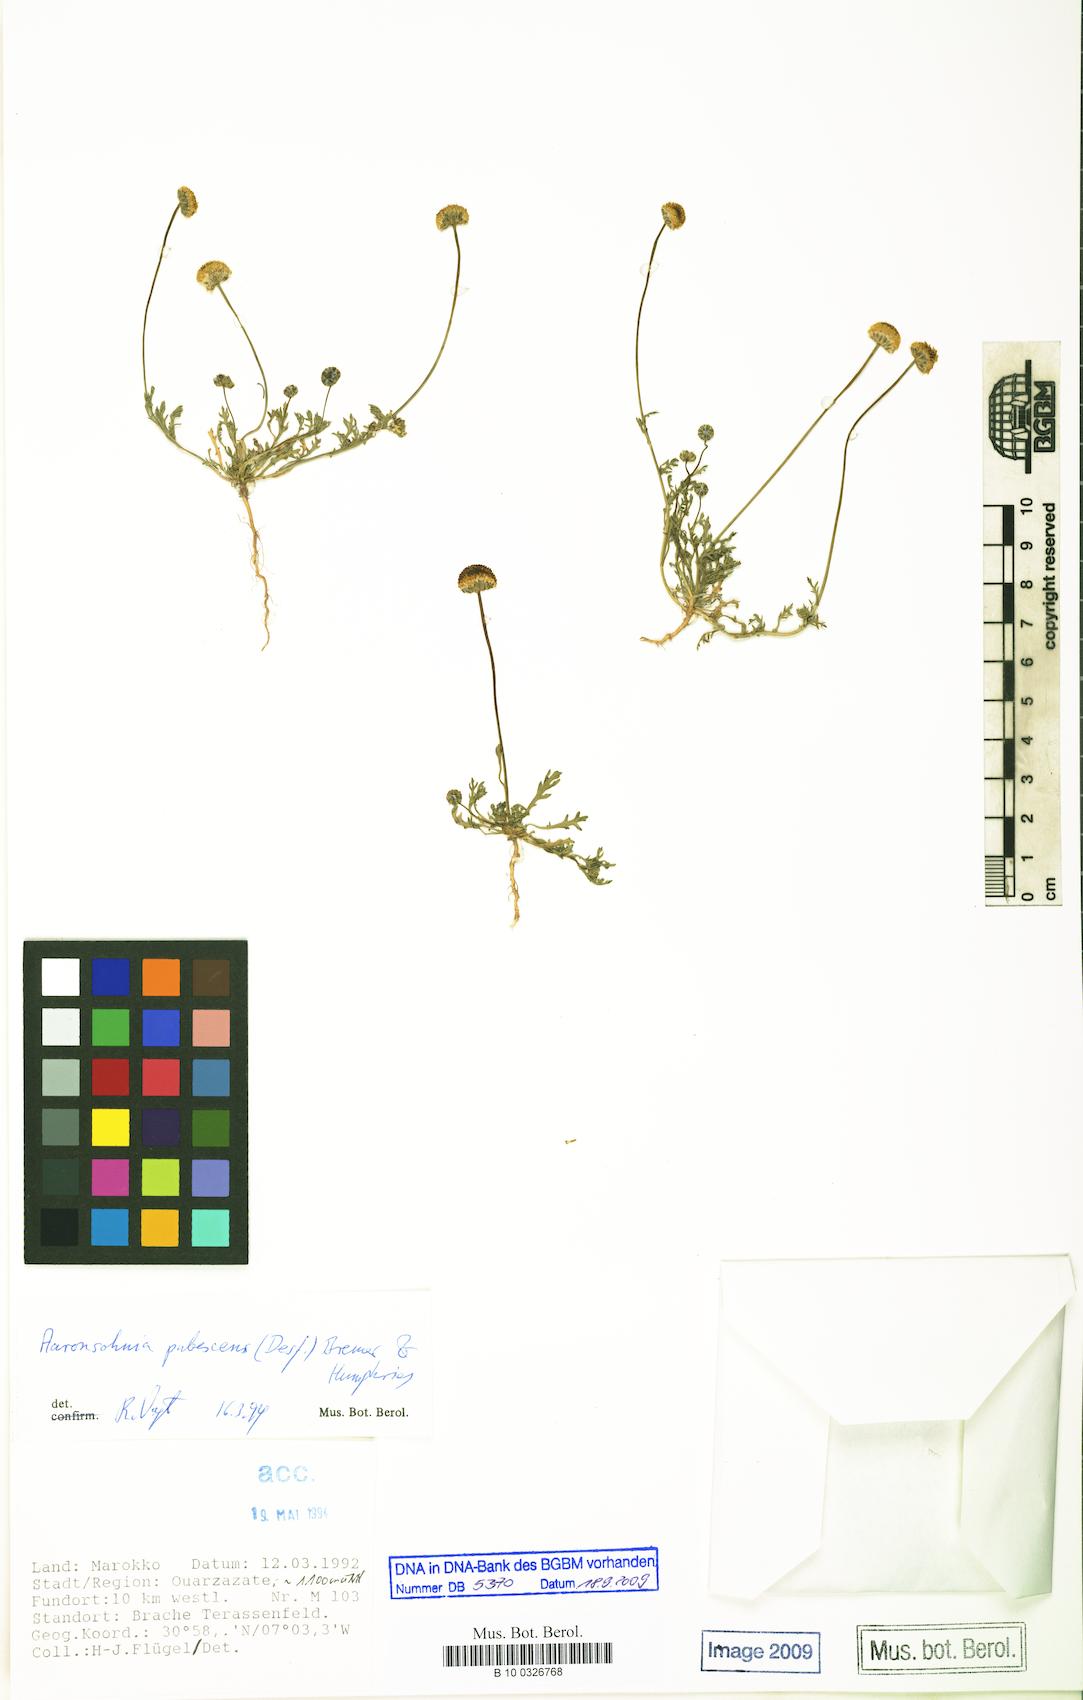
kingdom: Plantae
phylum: Tracheophyta
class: Magnoliopsida
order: Asterales
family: Asteraceae
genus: Otoglyphis
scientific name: Otoglyphis pubescens
